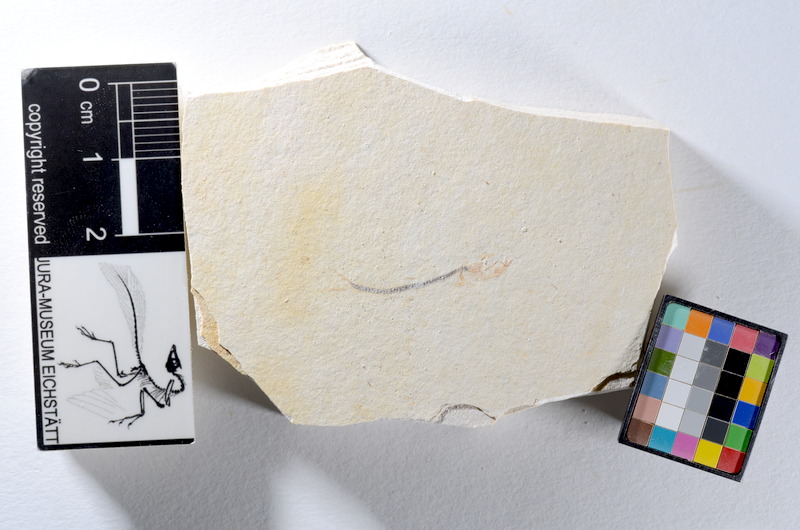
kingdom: Animalia
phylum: Chordata
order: Salmoniformes
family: Orthogonikleithridae
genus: Orthogonikleithrus
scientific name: Orthogonikleithrus hoelli
